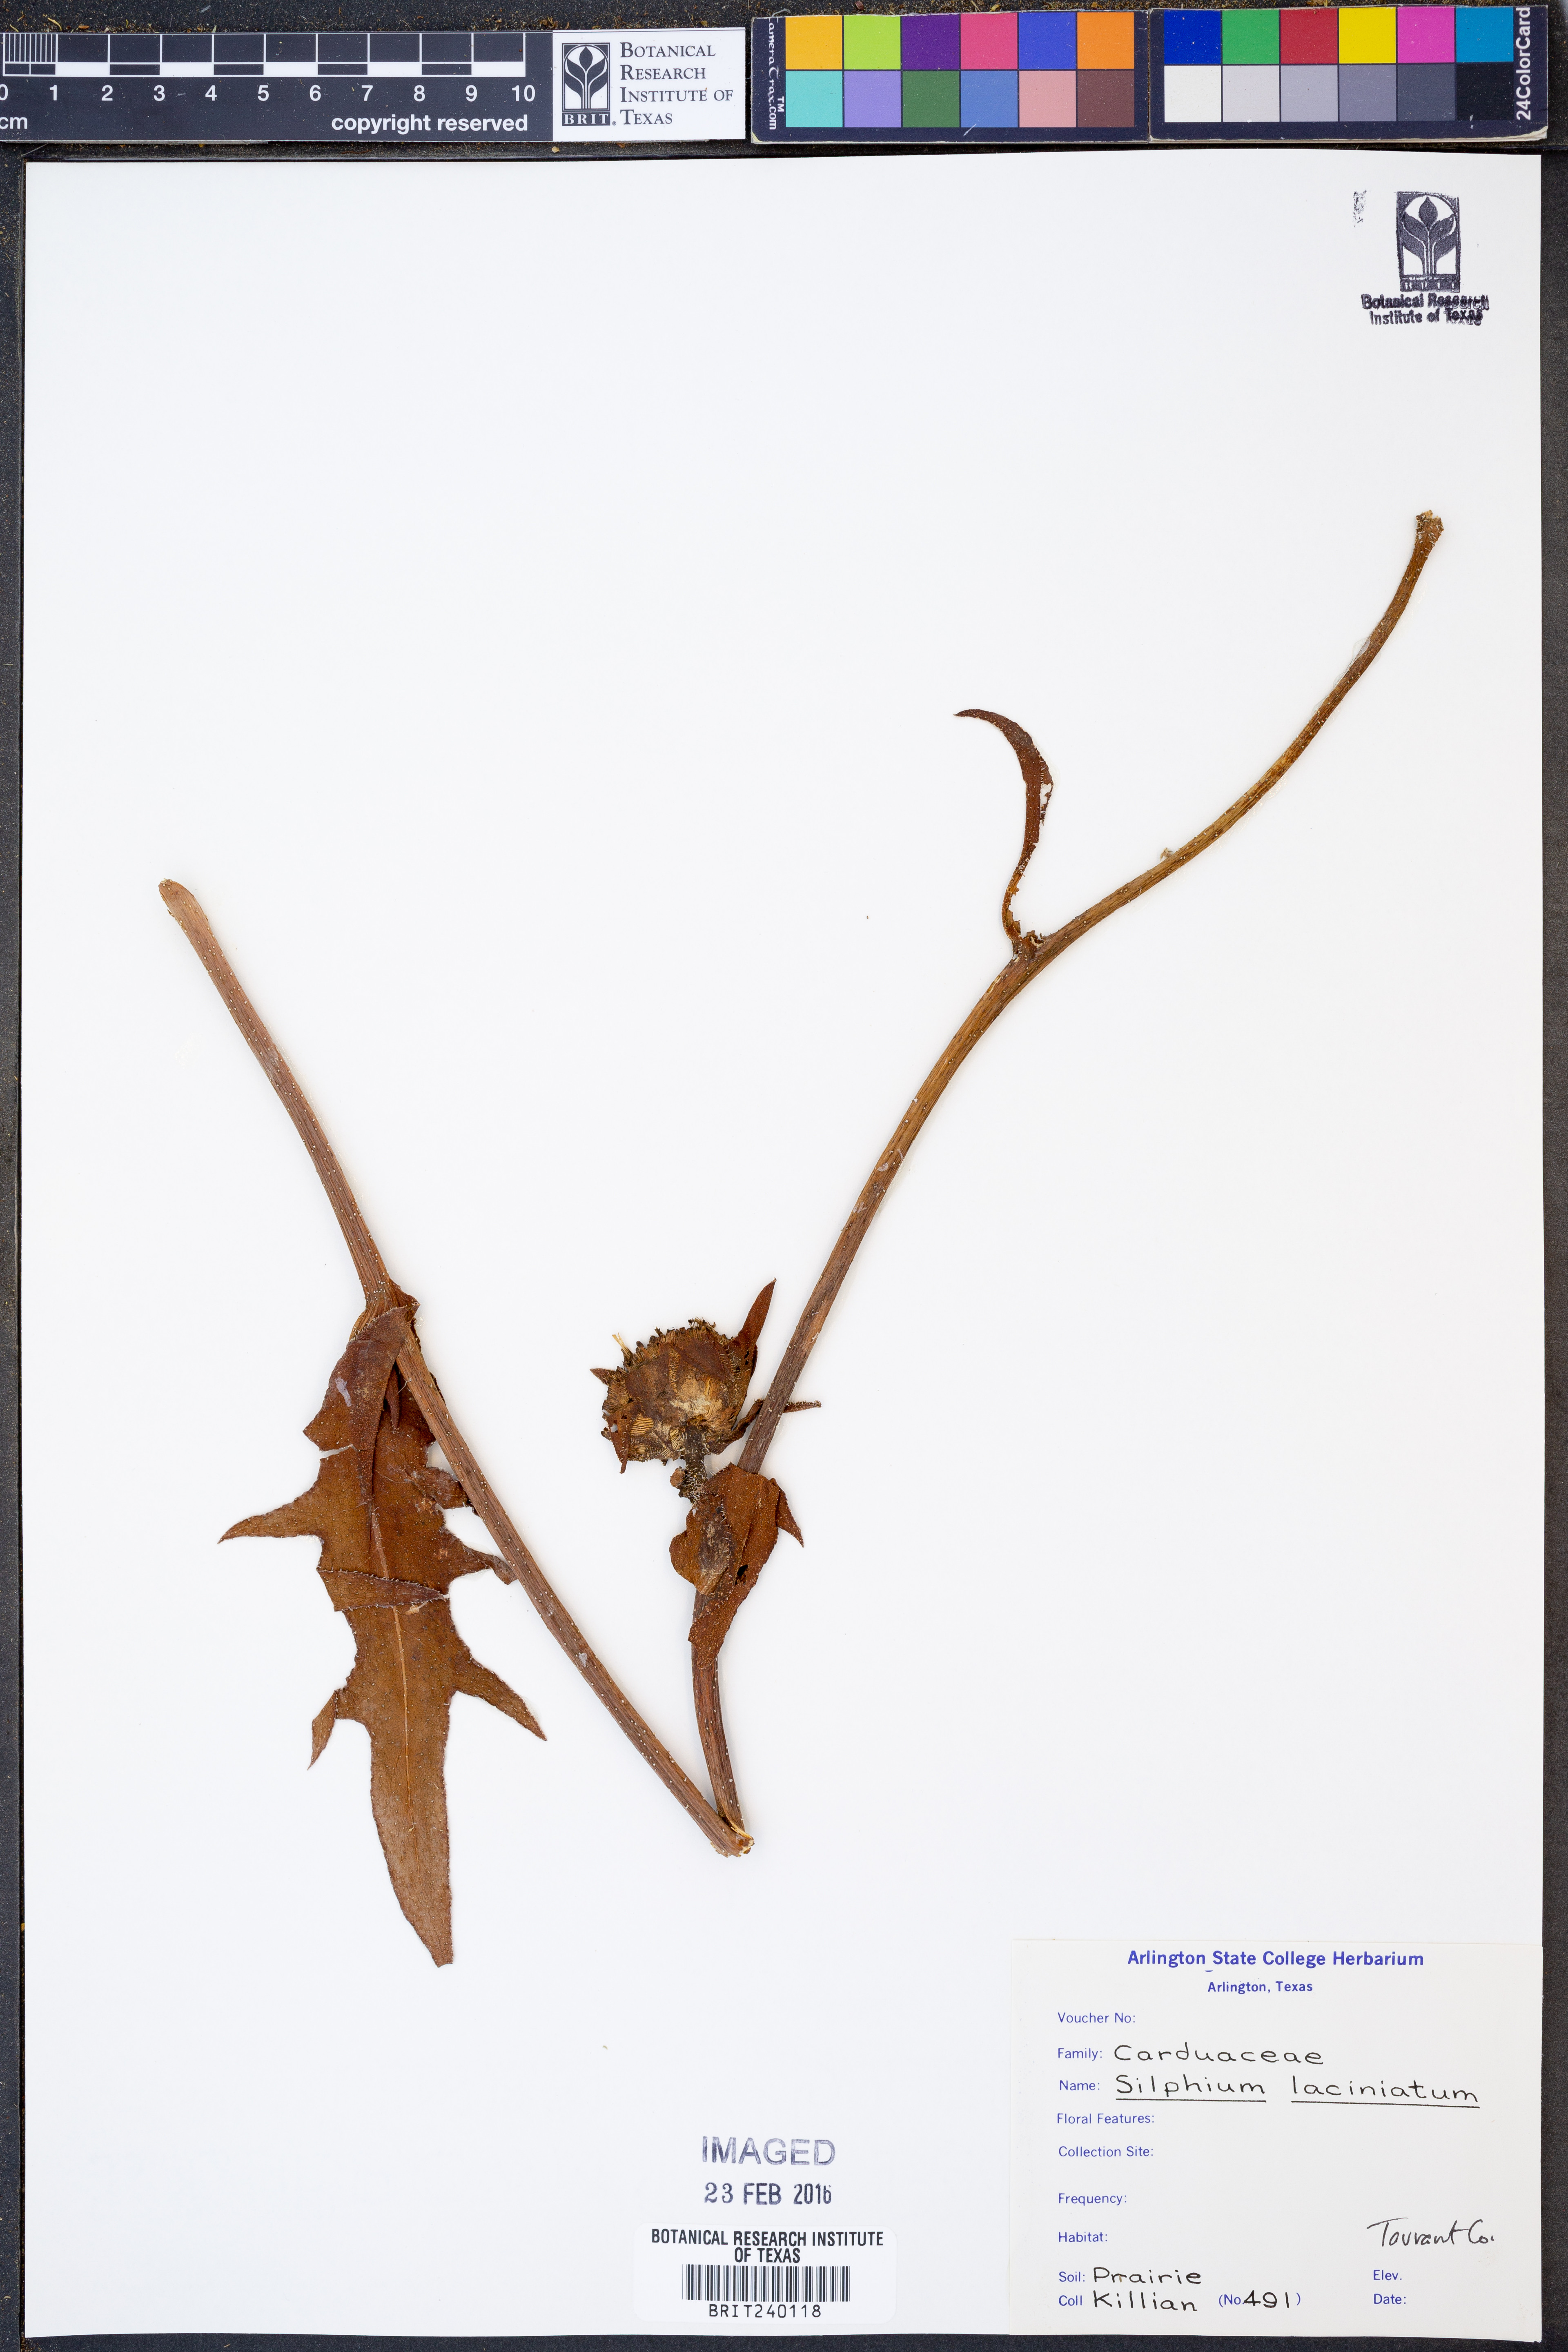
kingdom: Plantae
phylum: Tracheophyta
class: Magnoliopsida
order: Asterales
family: Asteraceae
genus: Silphium
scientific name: Silphium laciniatum
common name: Polarplant
